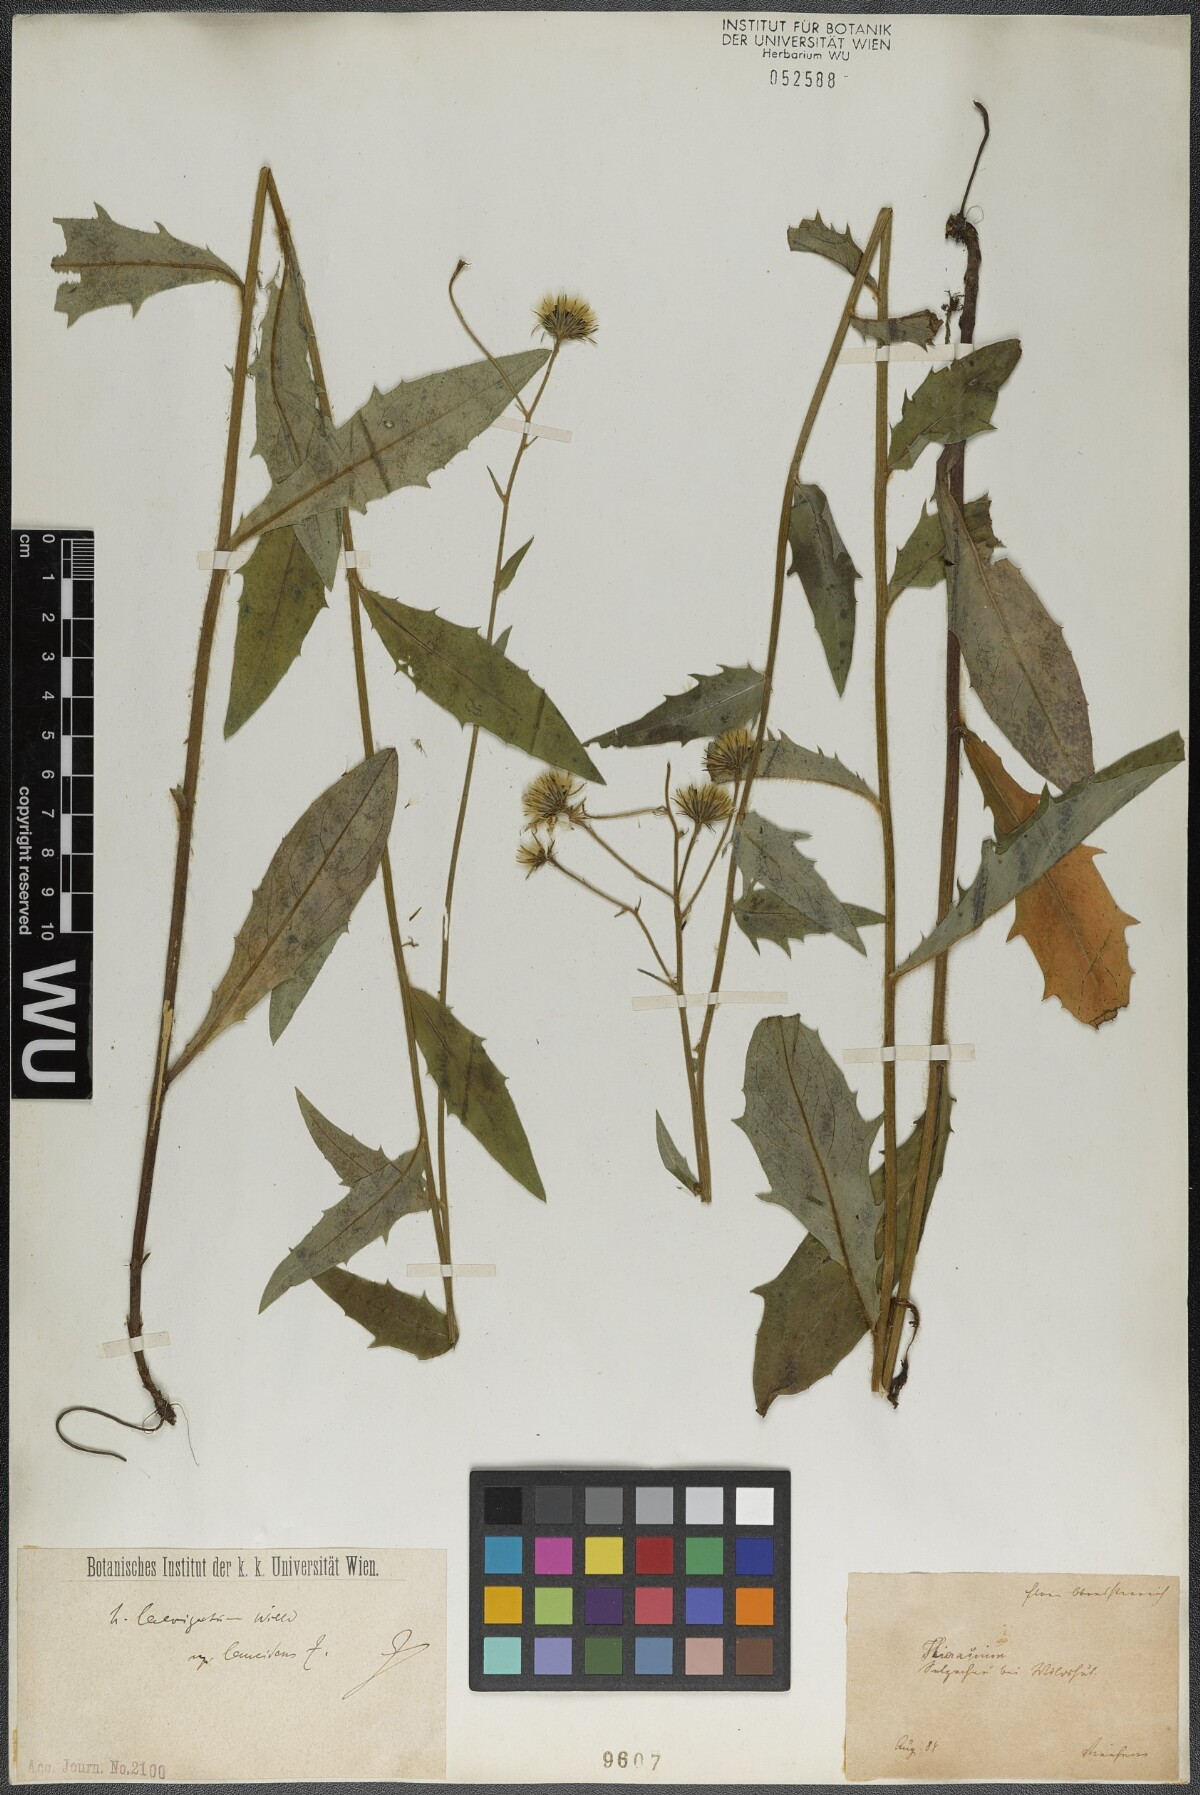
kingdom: Plantae
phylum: Tracheophyta
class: Magnoliopsida
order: Asterales
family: Asteraceae
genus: Hieracium
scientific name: Hieracium laevigatum
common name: Smooth hawkweed
